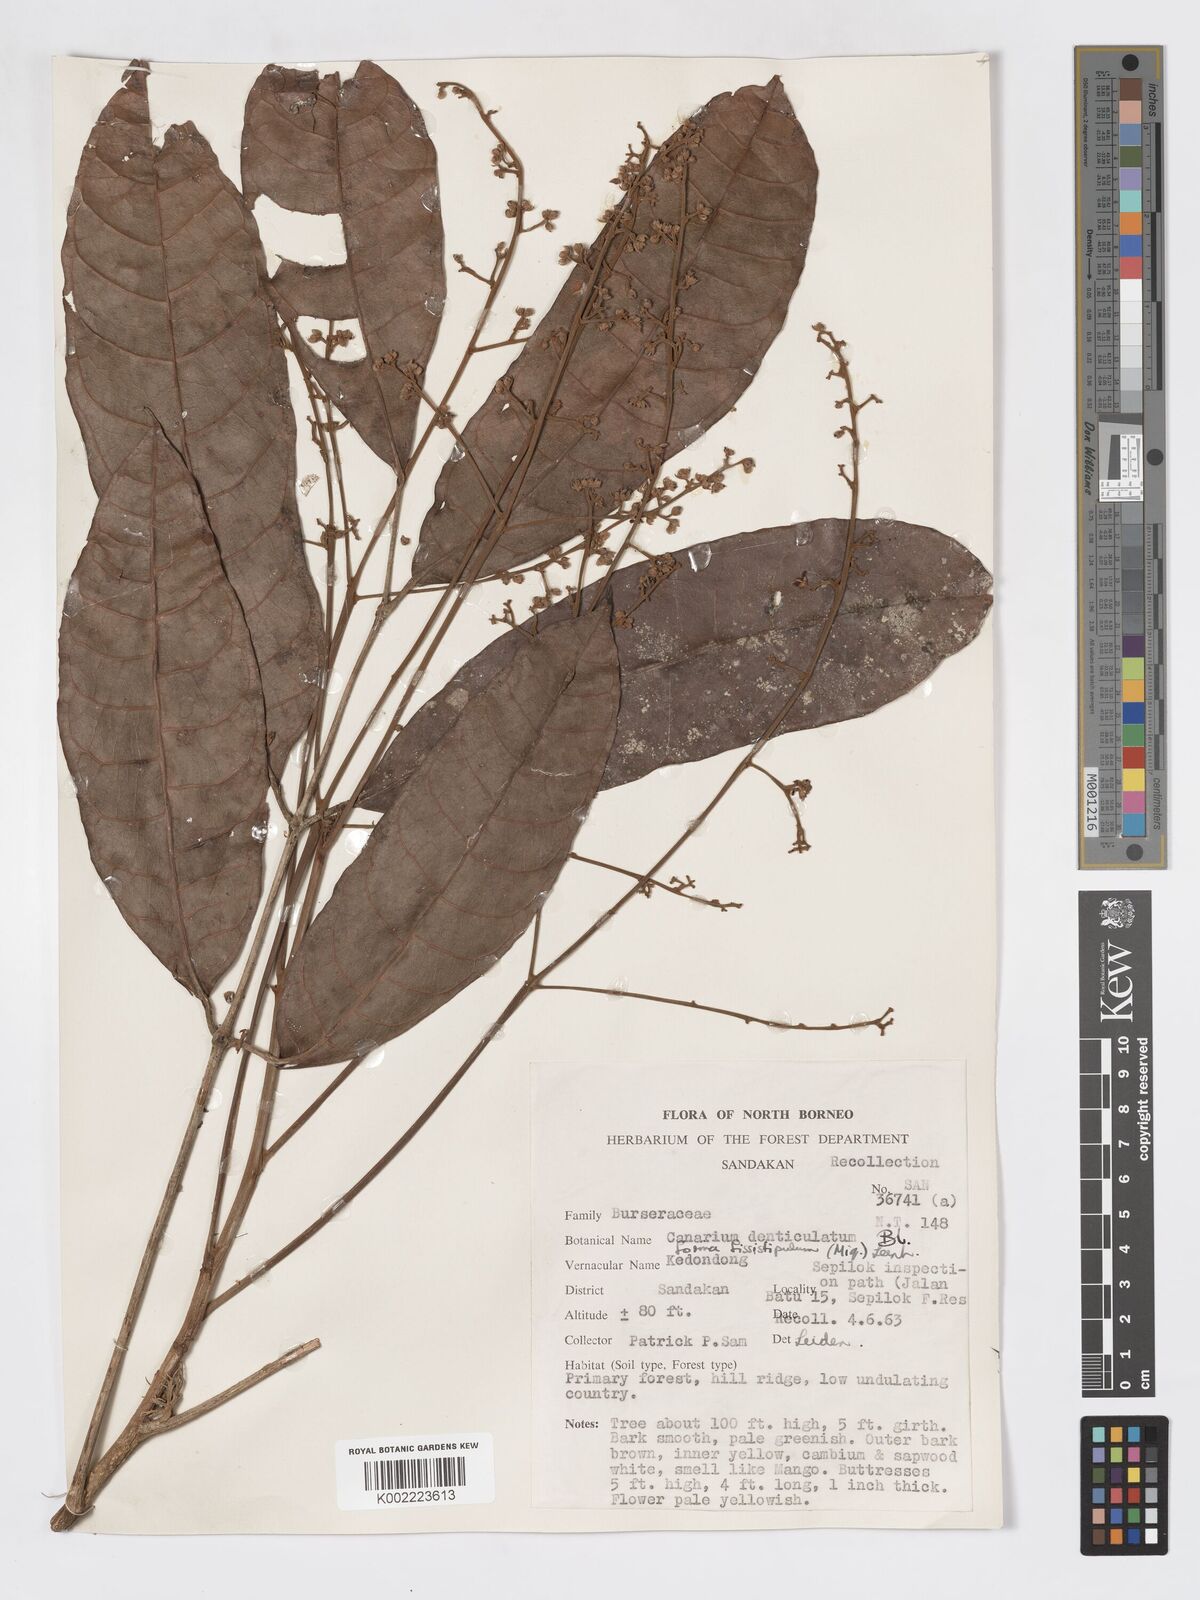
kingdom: Plantae
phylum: Tracheophyta
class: Magnoliopsida
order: Sapindales
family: Burseraceae
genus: Canarium
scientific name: Canarium denticulatum
